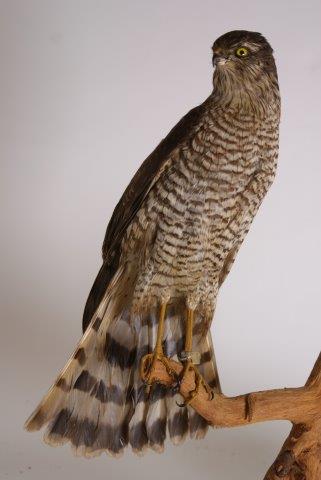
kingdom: Animalia
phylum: Chordata
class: Aves
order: Accipitriformes
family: Accipitridae
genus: Accipiter
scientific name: Accipiter nisus
